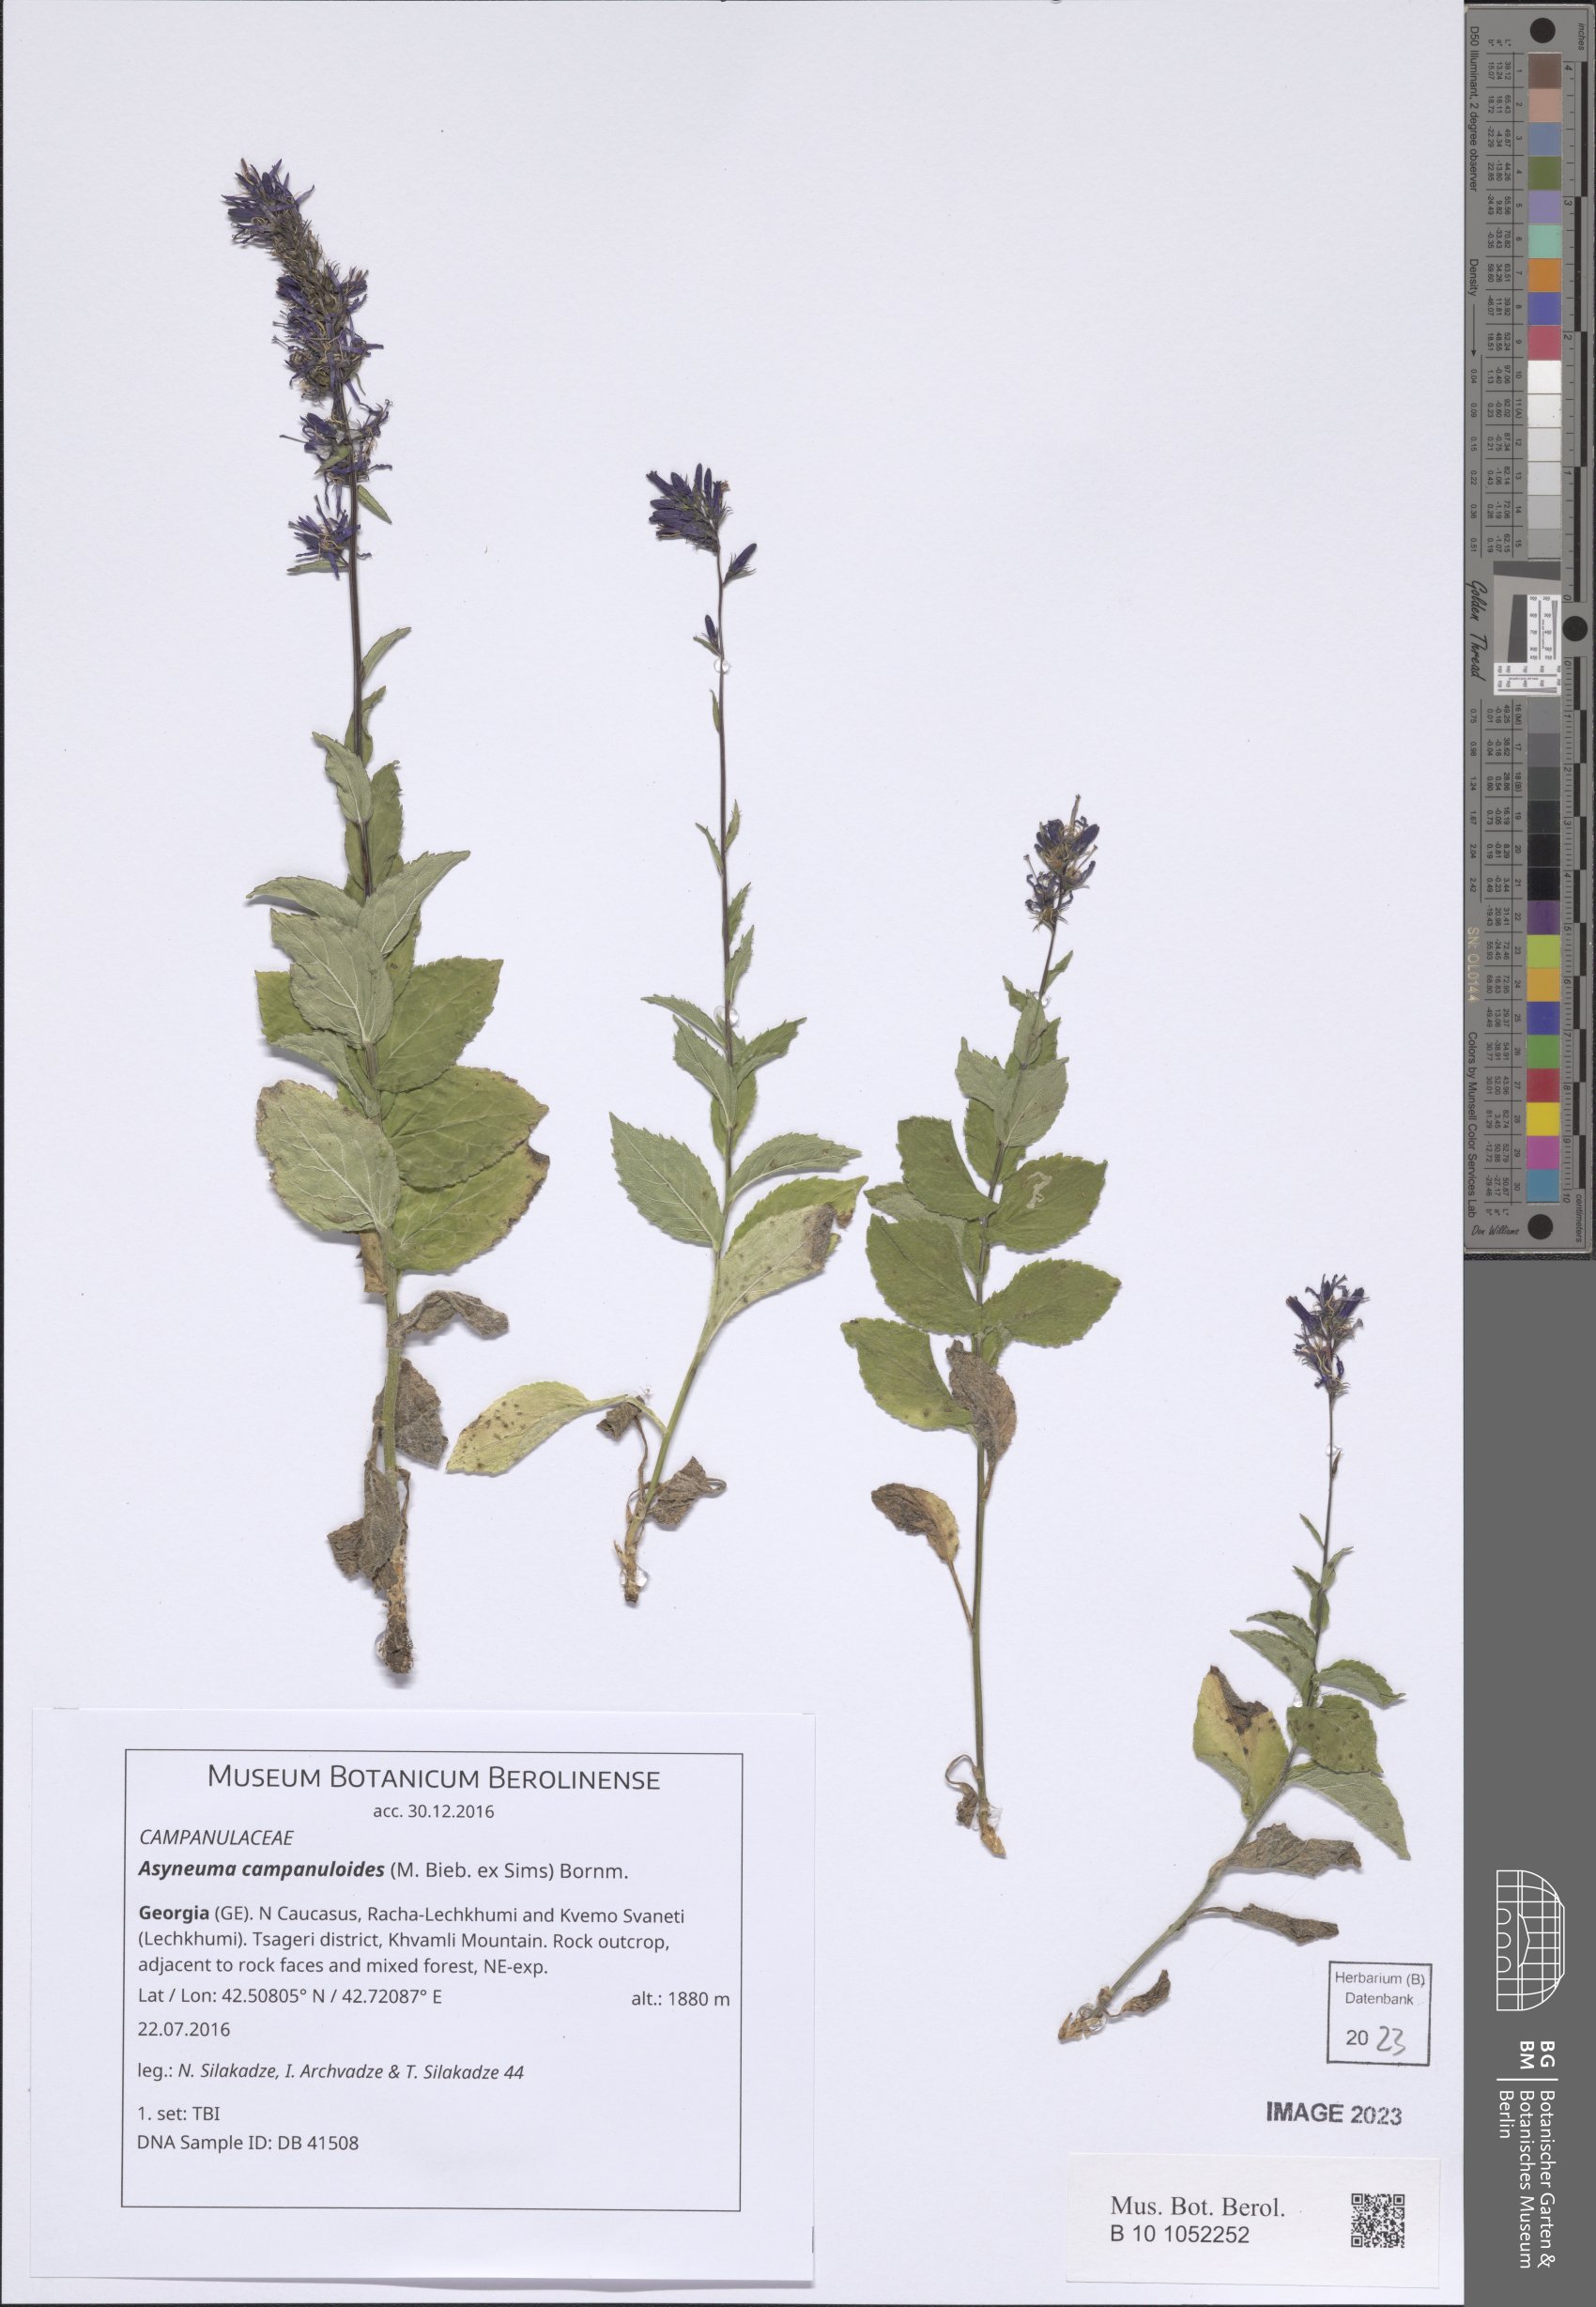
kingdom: Plantae
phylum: Tracheophyta
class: Magnoliopsida
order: Asterales
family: Campanulaceae
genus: Asyneuma
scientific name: Asyneuma campanuloides
